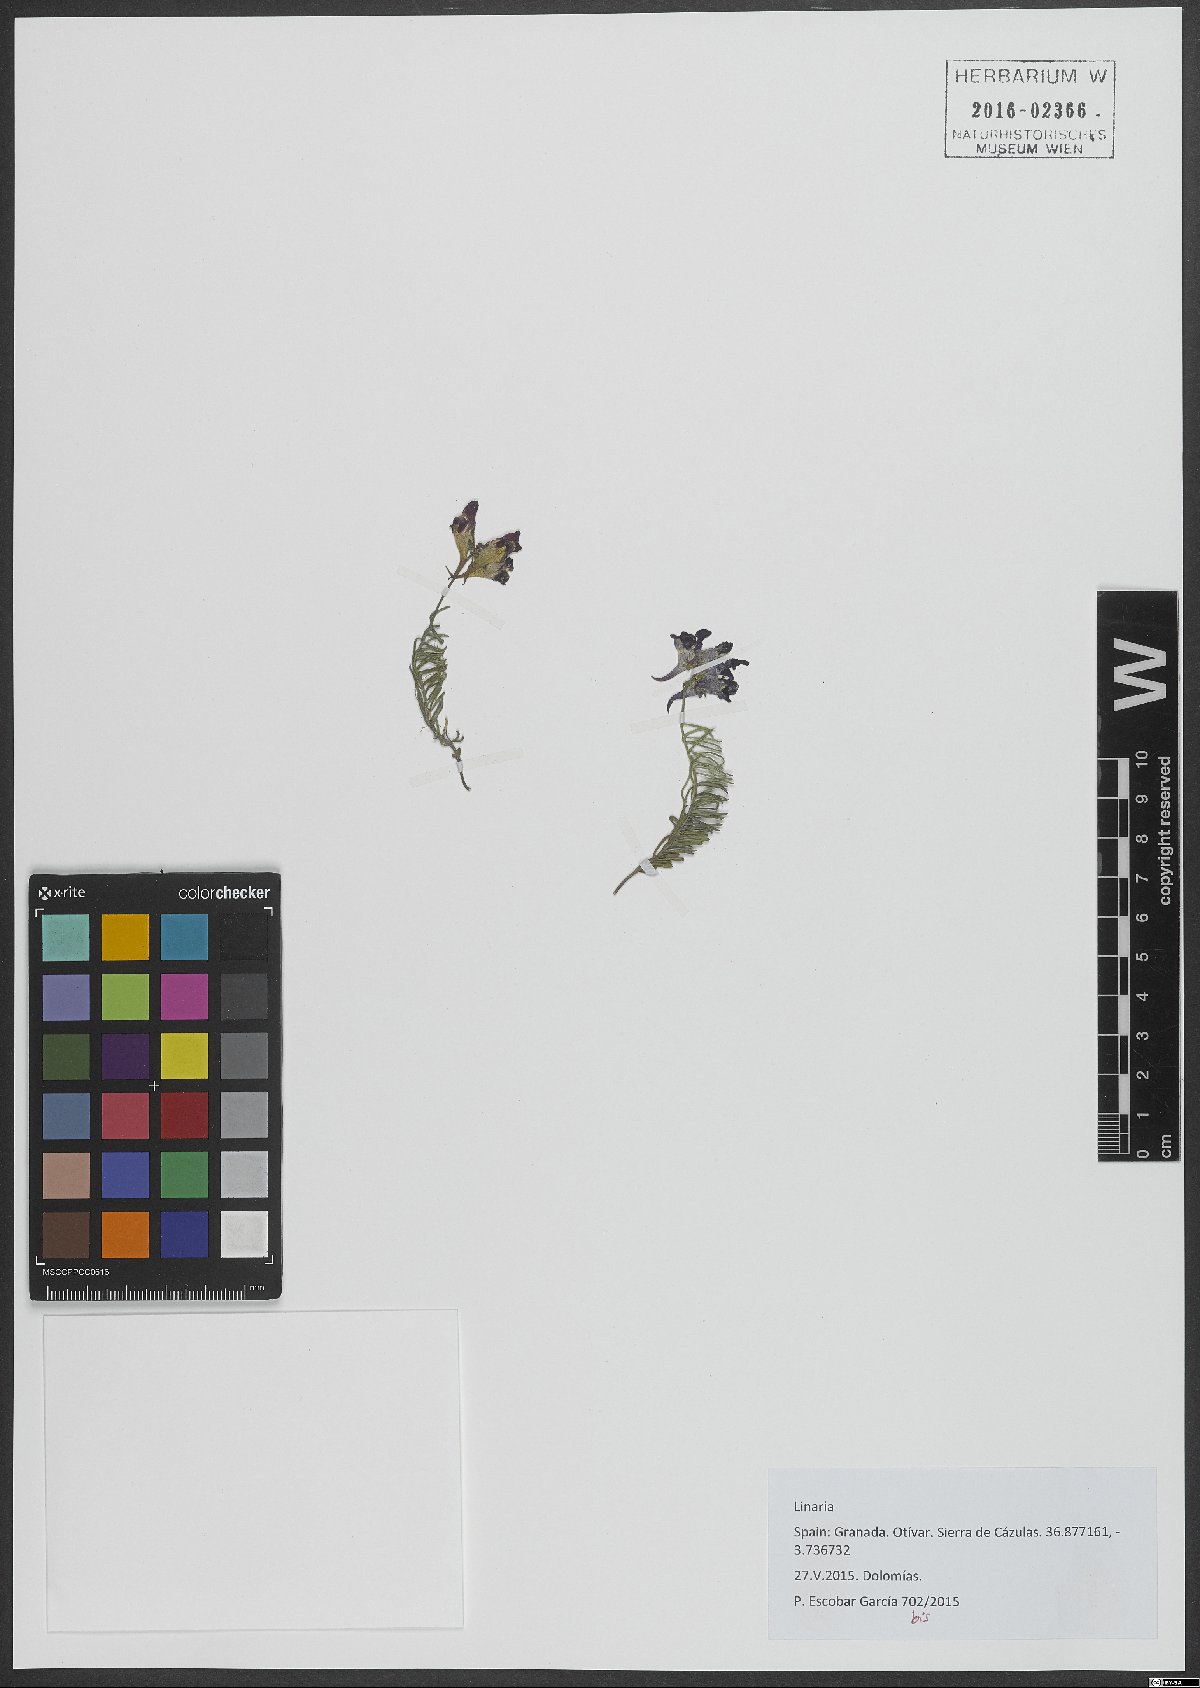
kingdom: Plantae
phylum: Tracheophyta
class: Magnoliopsida
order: Lamiales
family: Plantaginaceae
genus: Linaria
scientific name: Linaria
